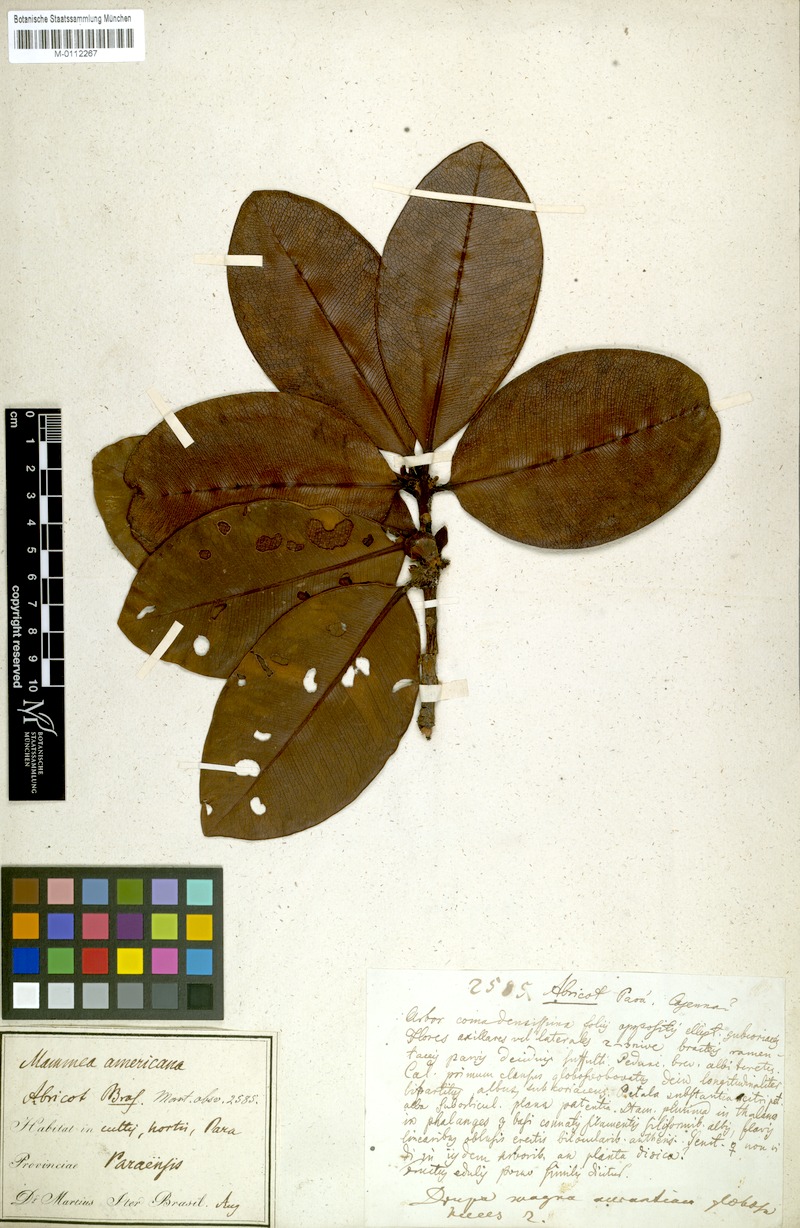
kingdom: Plantae
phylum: Tracheophyta
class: Magnoliopsida
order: Malpighiales
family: Calophyllaceae
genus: Mammea
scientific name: Mammea americana
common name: Mamey
